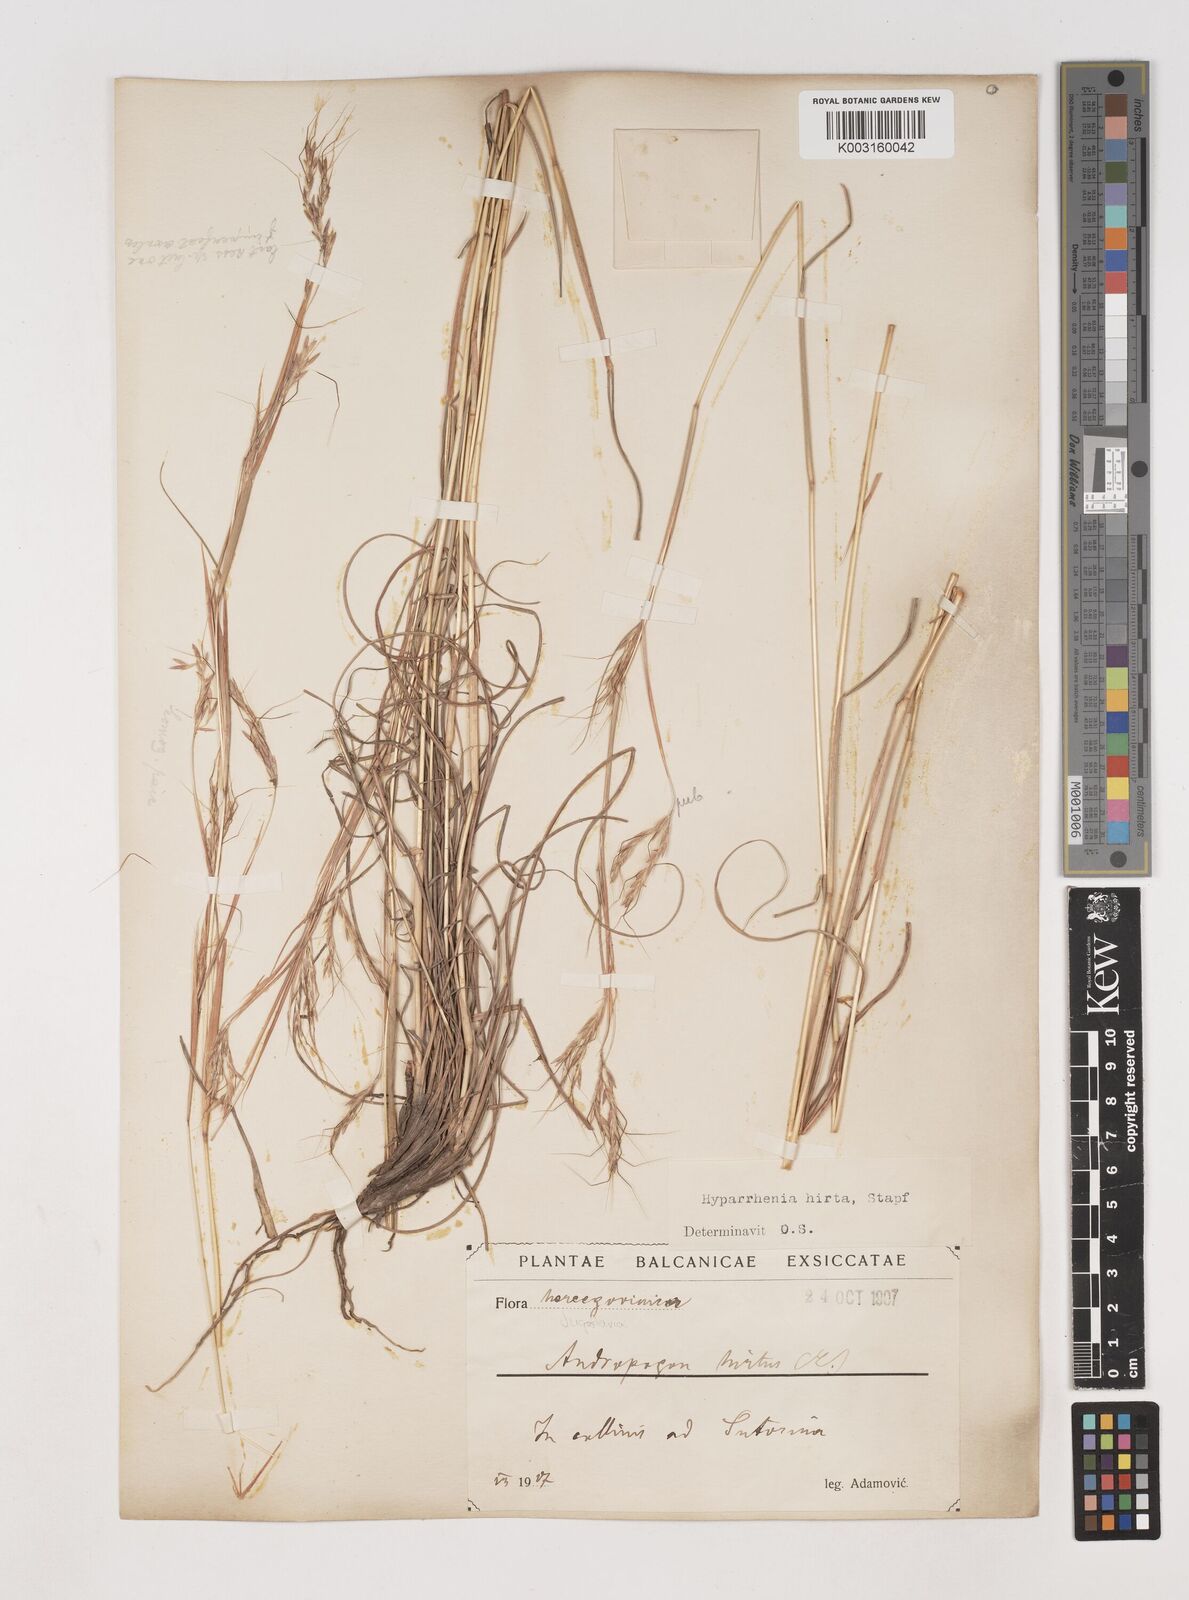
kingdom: Plantae
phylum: Tracheophyta
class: Liliopsida
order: Poales
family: Poaceae
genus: Hyparrhenia
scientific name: Hyparrhenia hirta
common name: Thatching grass
